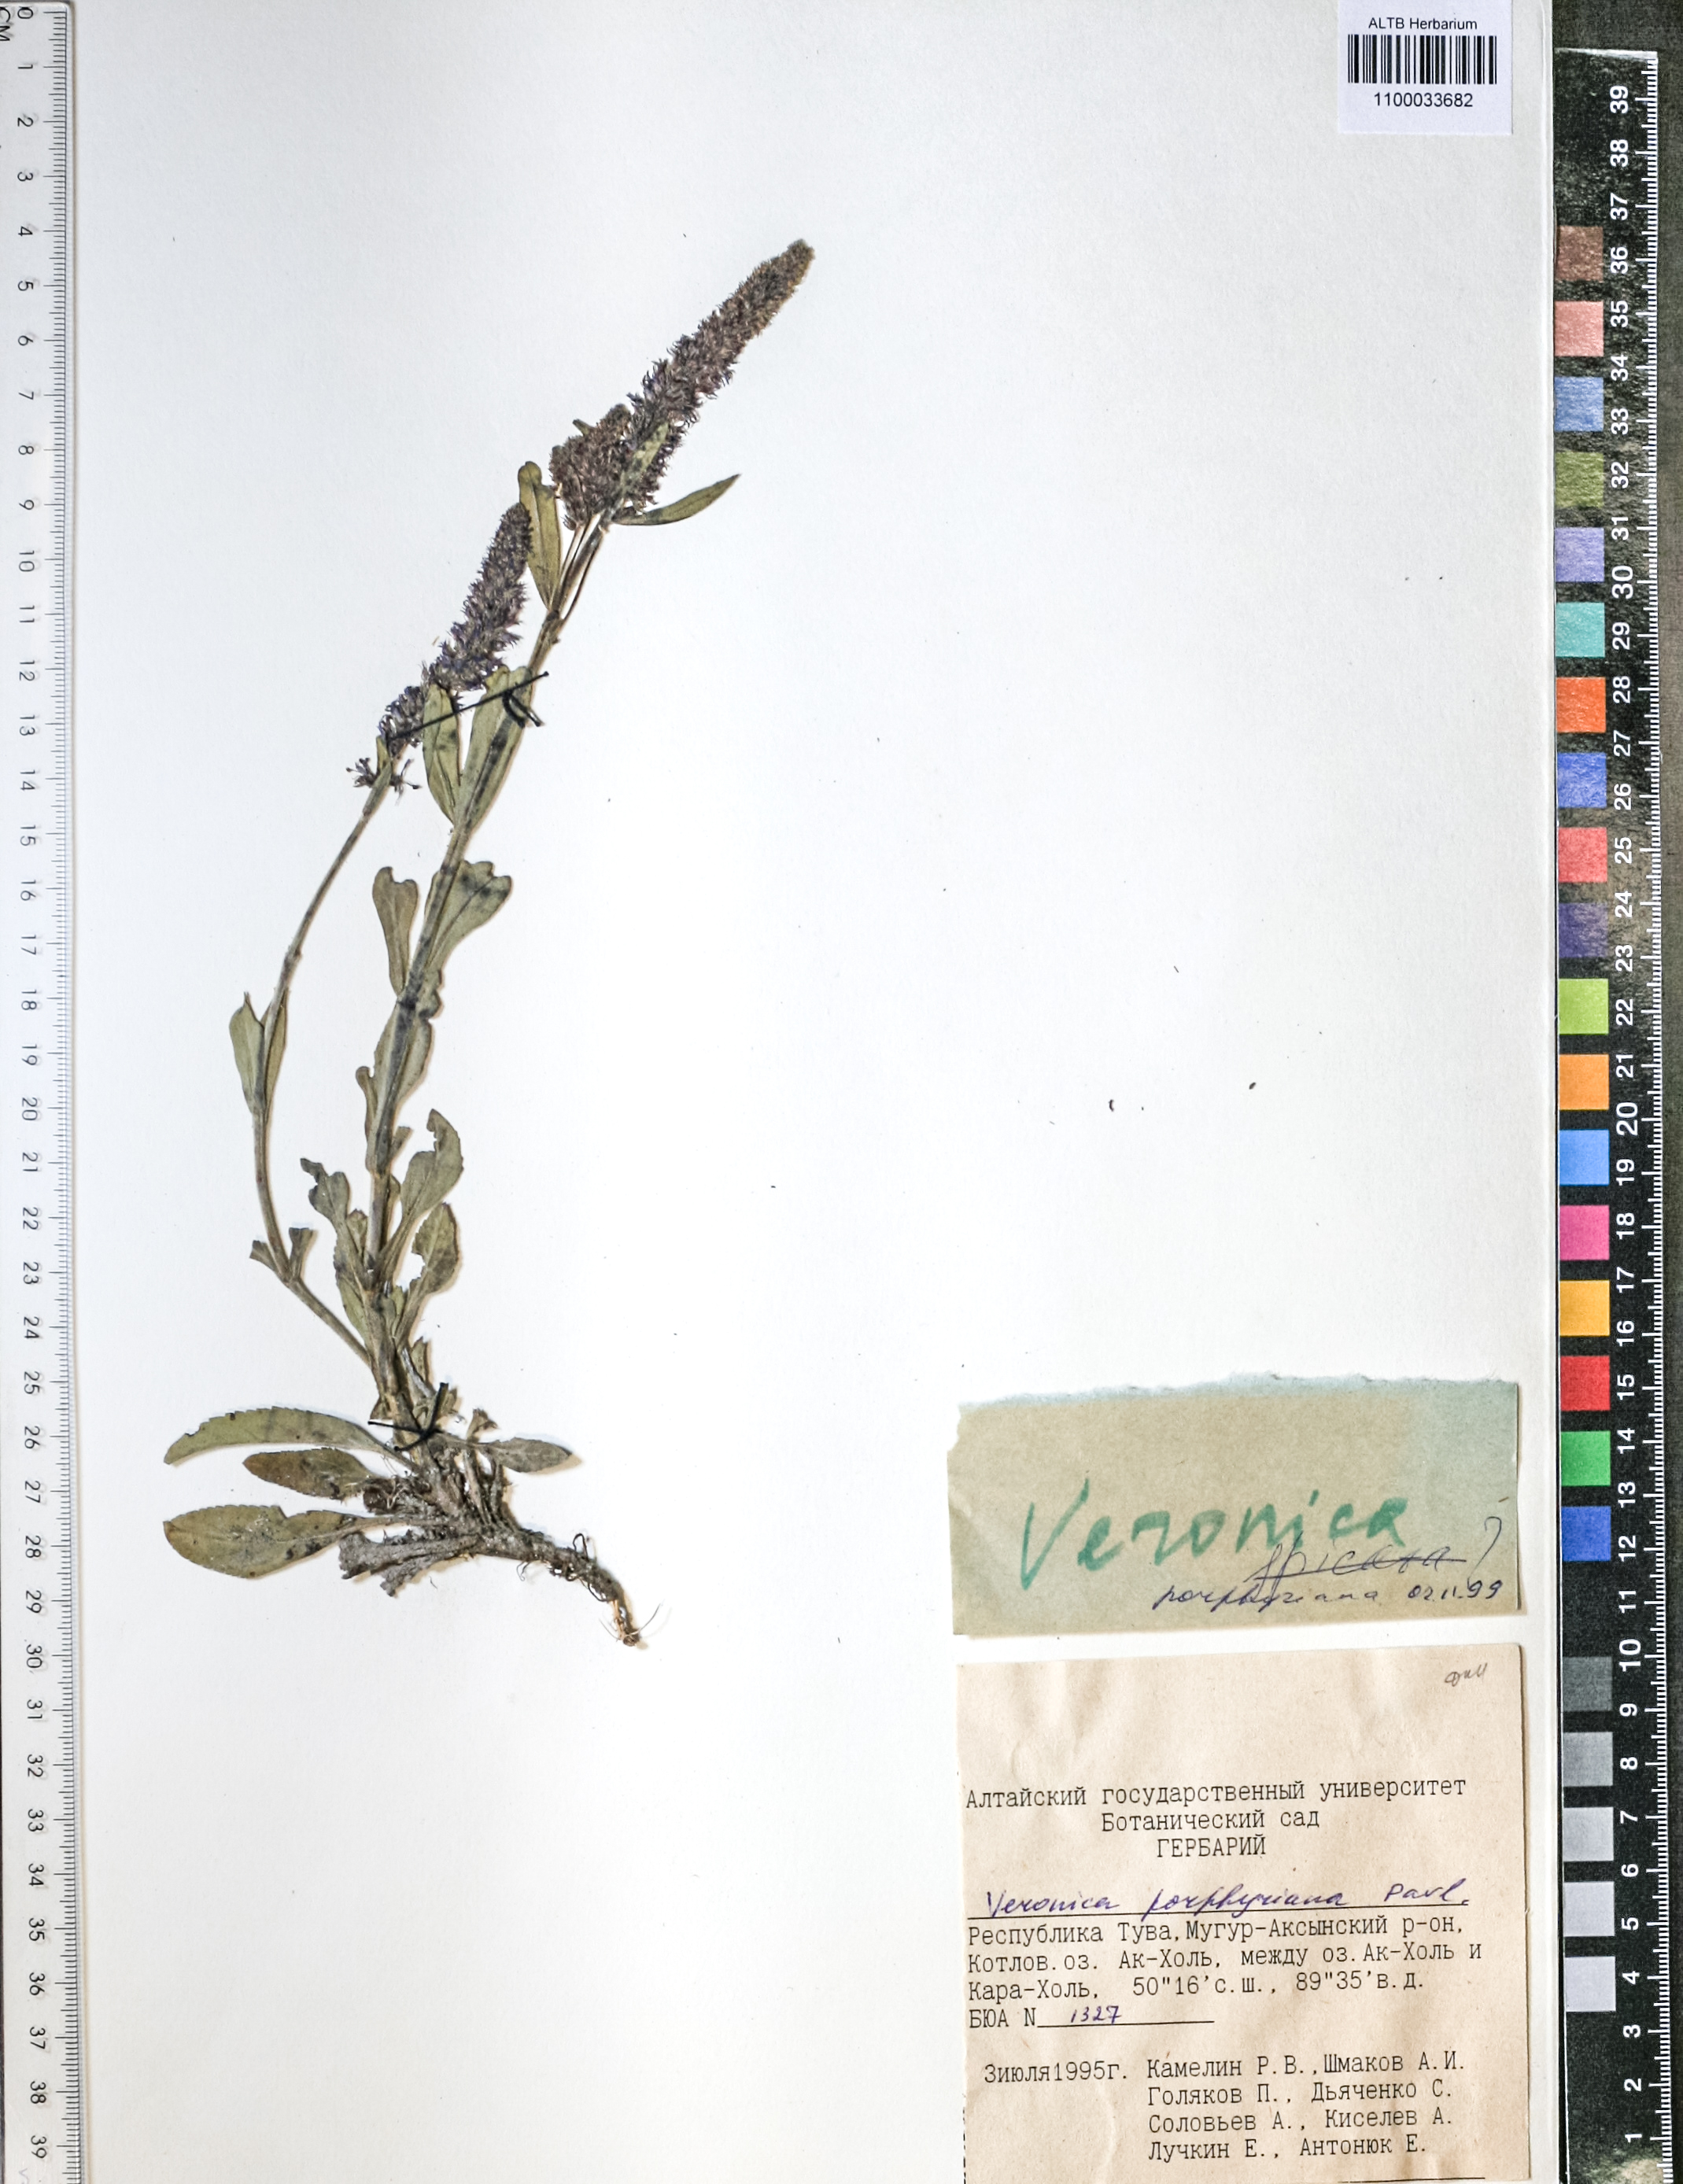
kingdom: Plantae
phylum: Tracheophyta
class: Magnoliopsida
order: Lamiales
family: Plantaginaceae
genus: Veronica
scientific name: Veronica porphyriana
